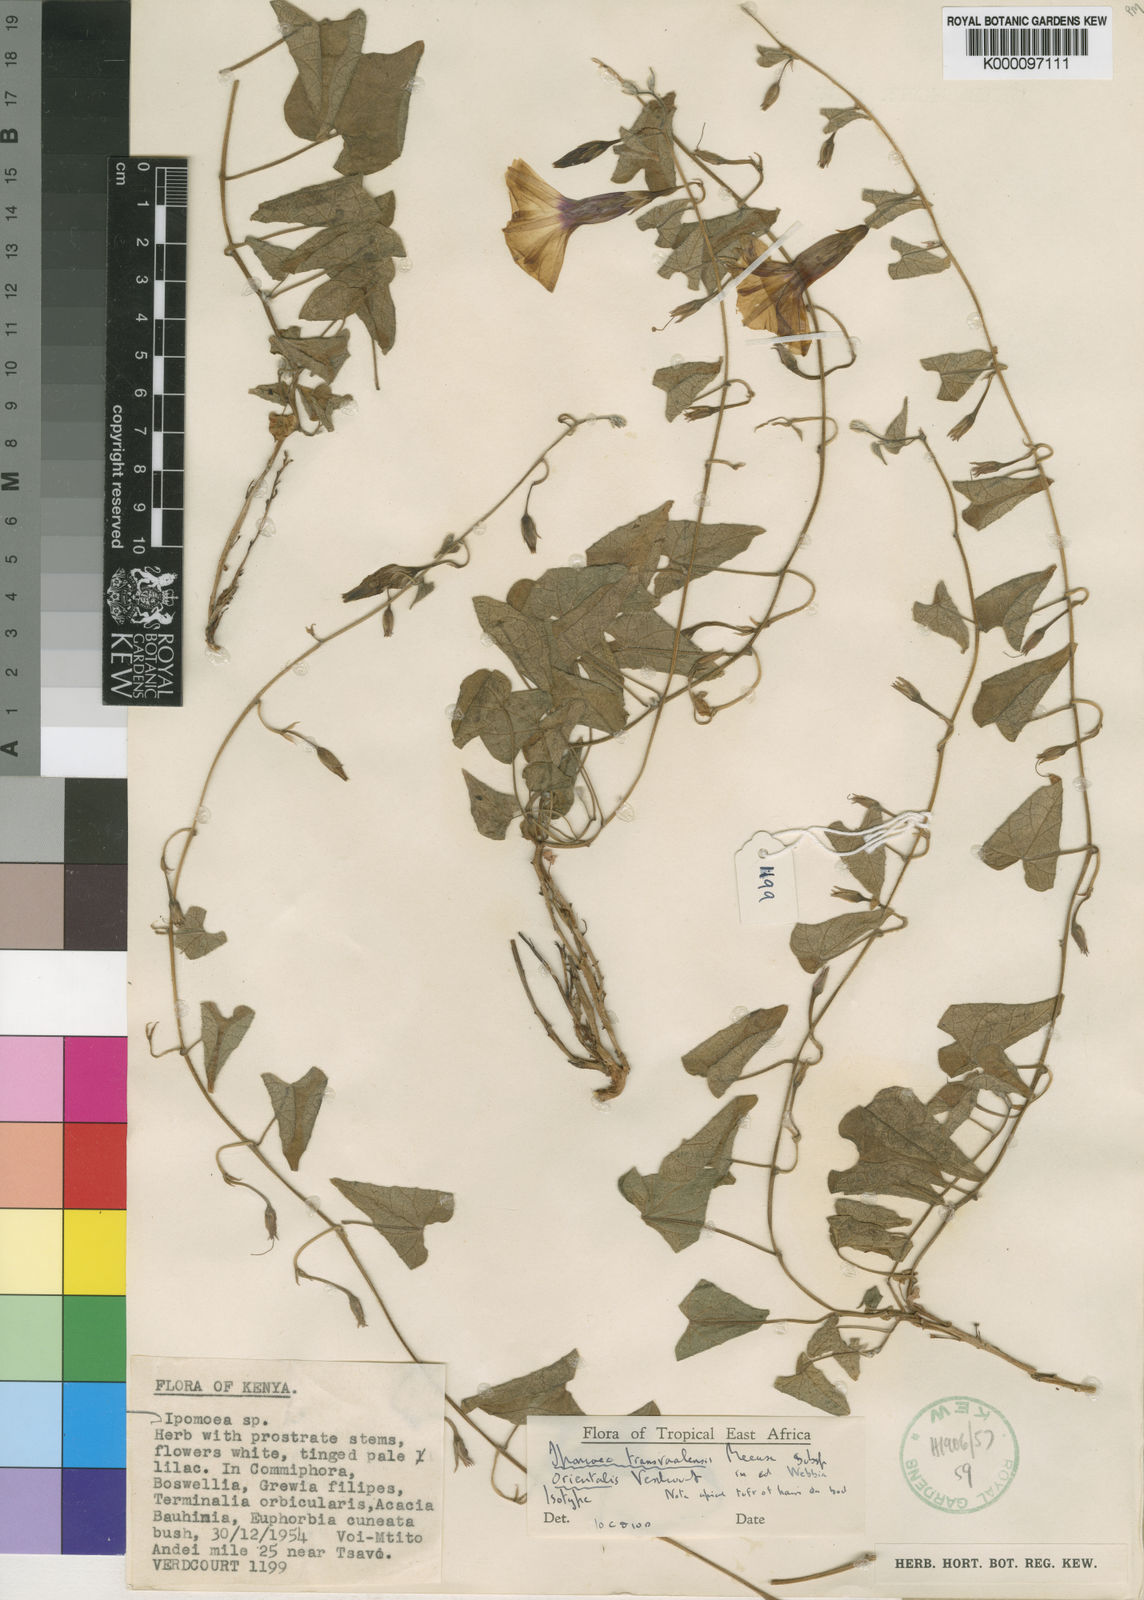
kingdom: Plantae
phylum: Tracheophyta
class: Magnoliopsida
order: Solanales
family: Convolvulaceae
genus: Ipomoea
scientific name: Ipomoea transvaalensis
